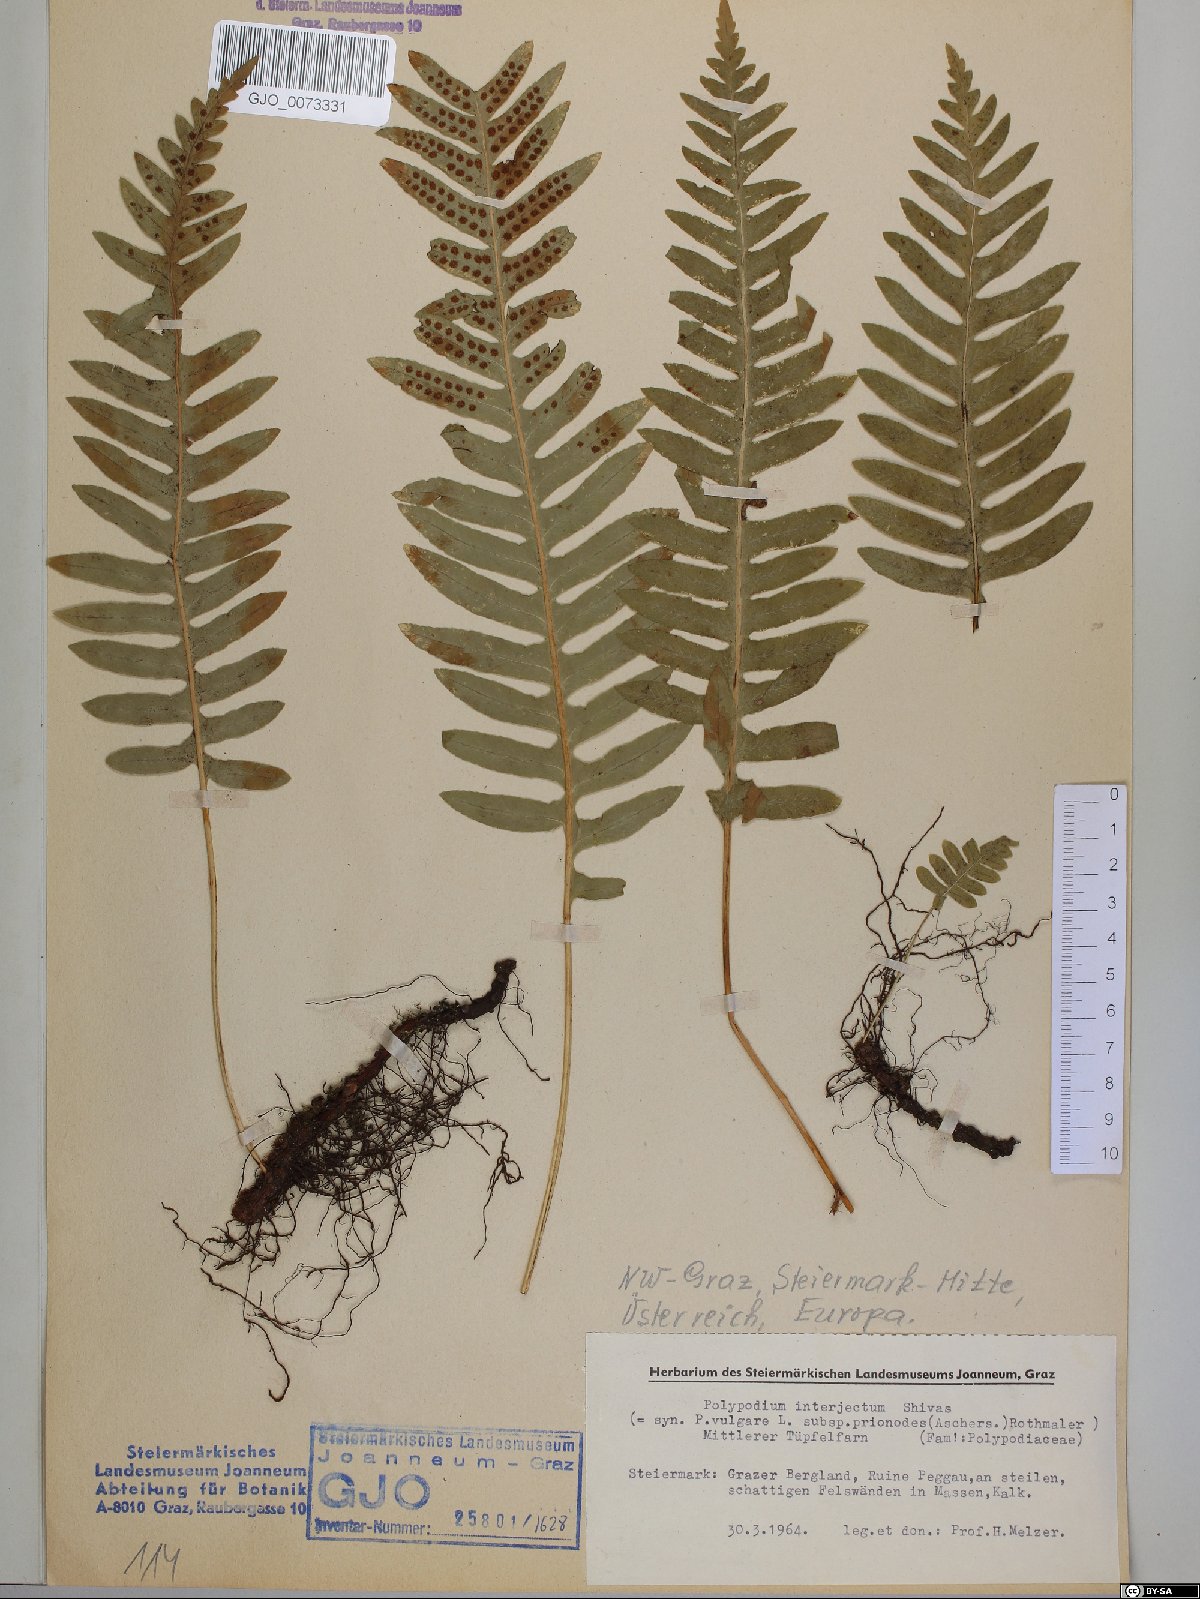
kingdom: Plantae
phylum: Tracheophyta
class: Polypodiopsida
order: Polypodiales
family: Polypodiaceae
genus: Polypodium
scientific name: Polypodium interjectum
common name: Intermediate polypody
